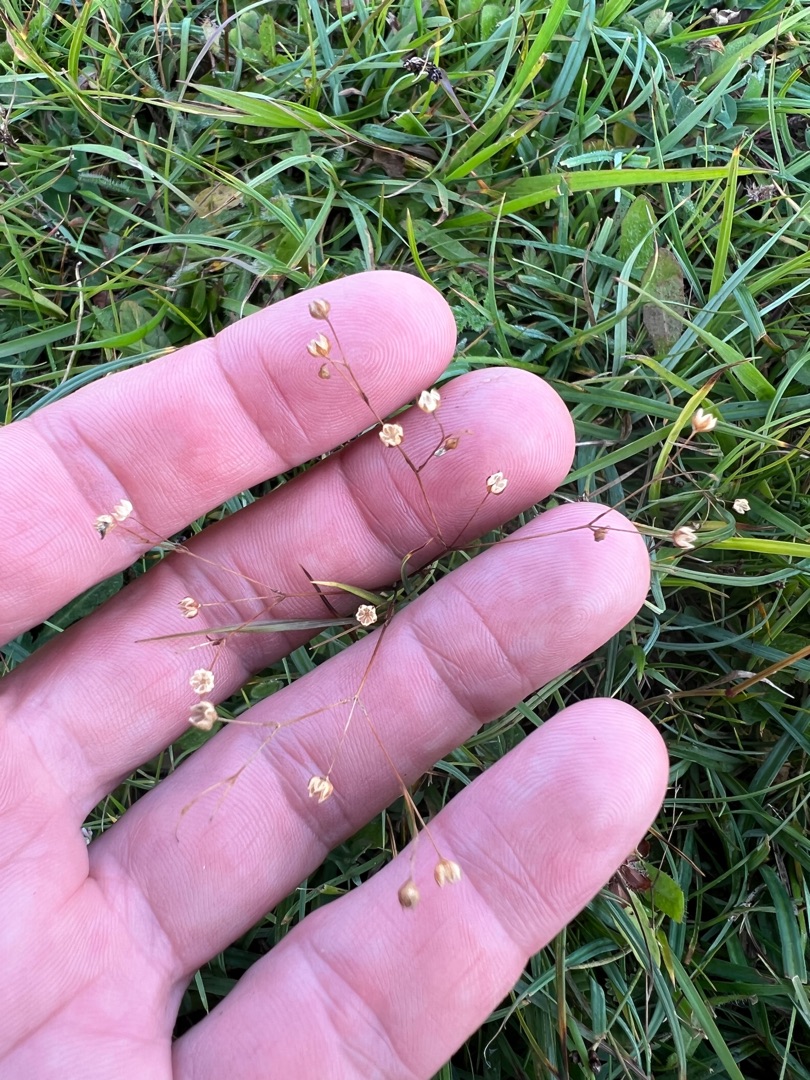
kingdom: Plantae
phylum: Tracheophyta
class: Magnoliopsida
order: Malpighiales
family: Linaceae
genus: Linum
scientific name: Linum catharticum
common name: Vild hør
